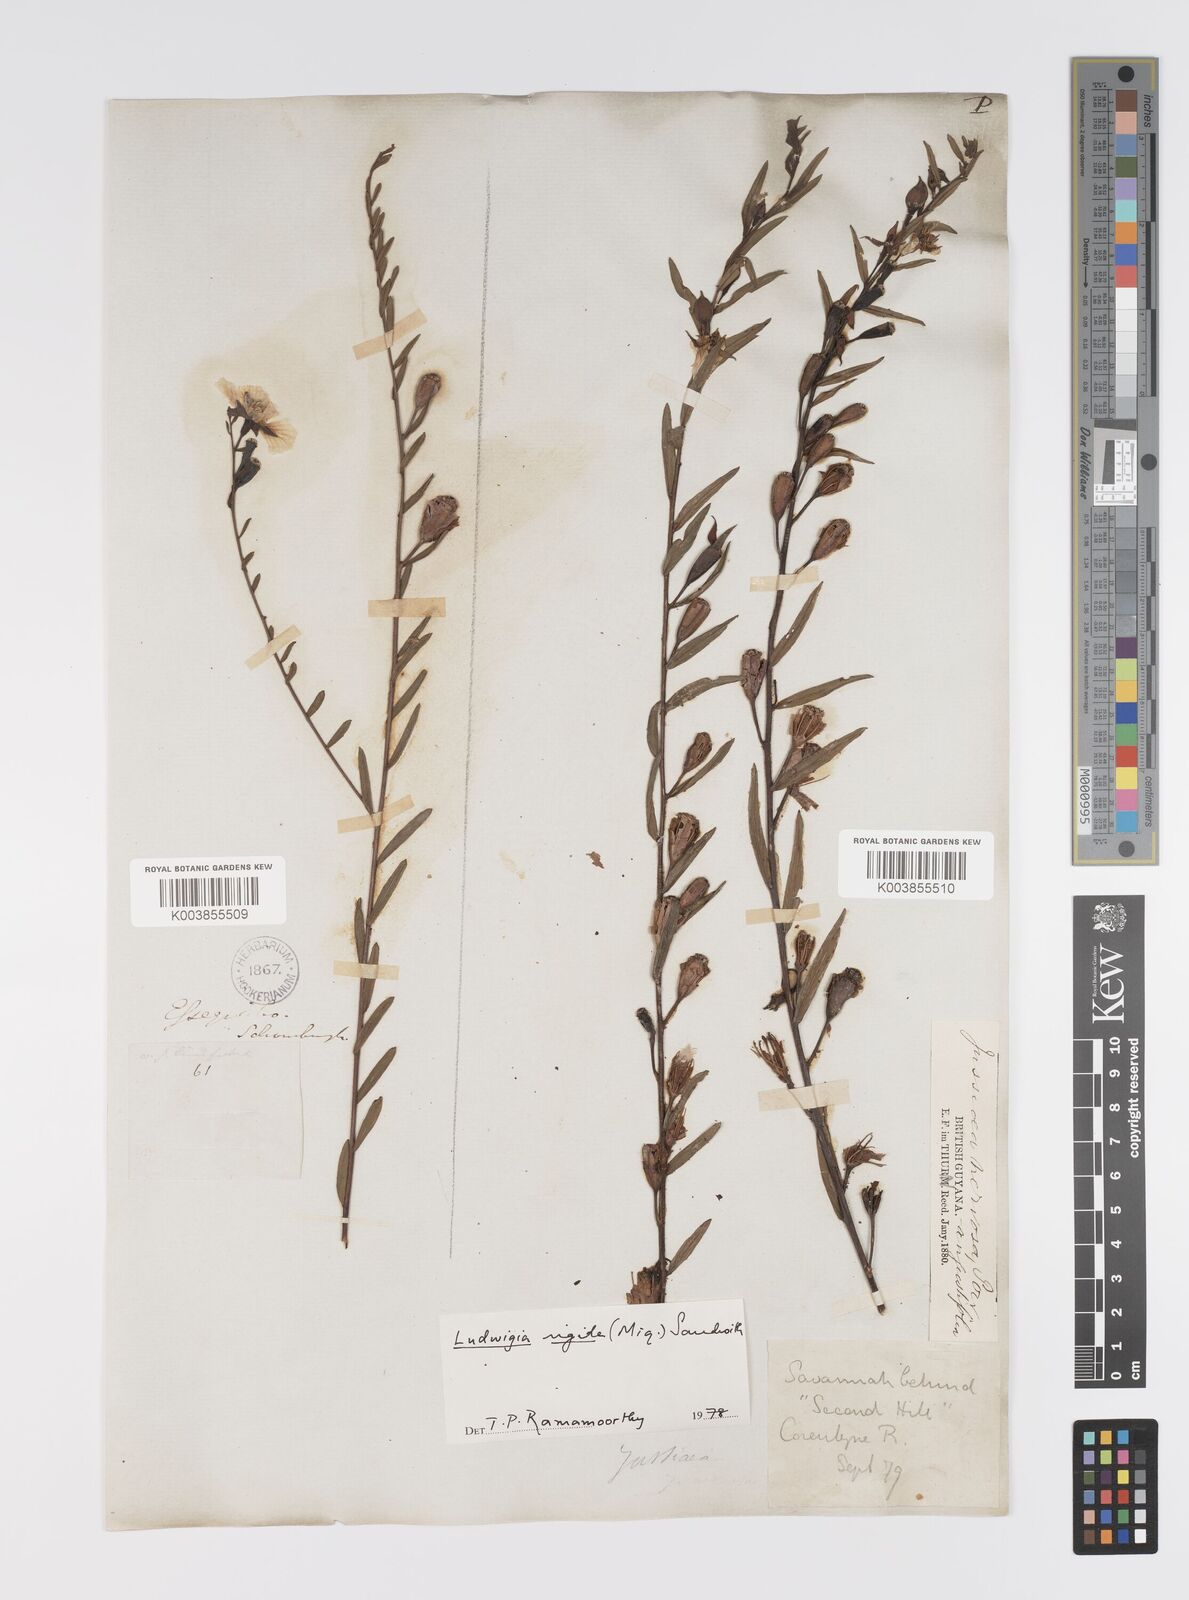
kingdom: Plantae
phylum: Tracheophyta
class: Magnoliopsida
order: Myrtales
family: Onagraceae
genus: Ludwigia
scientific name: Ludwigia rigida
